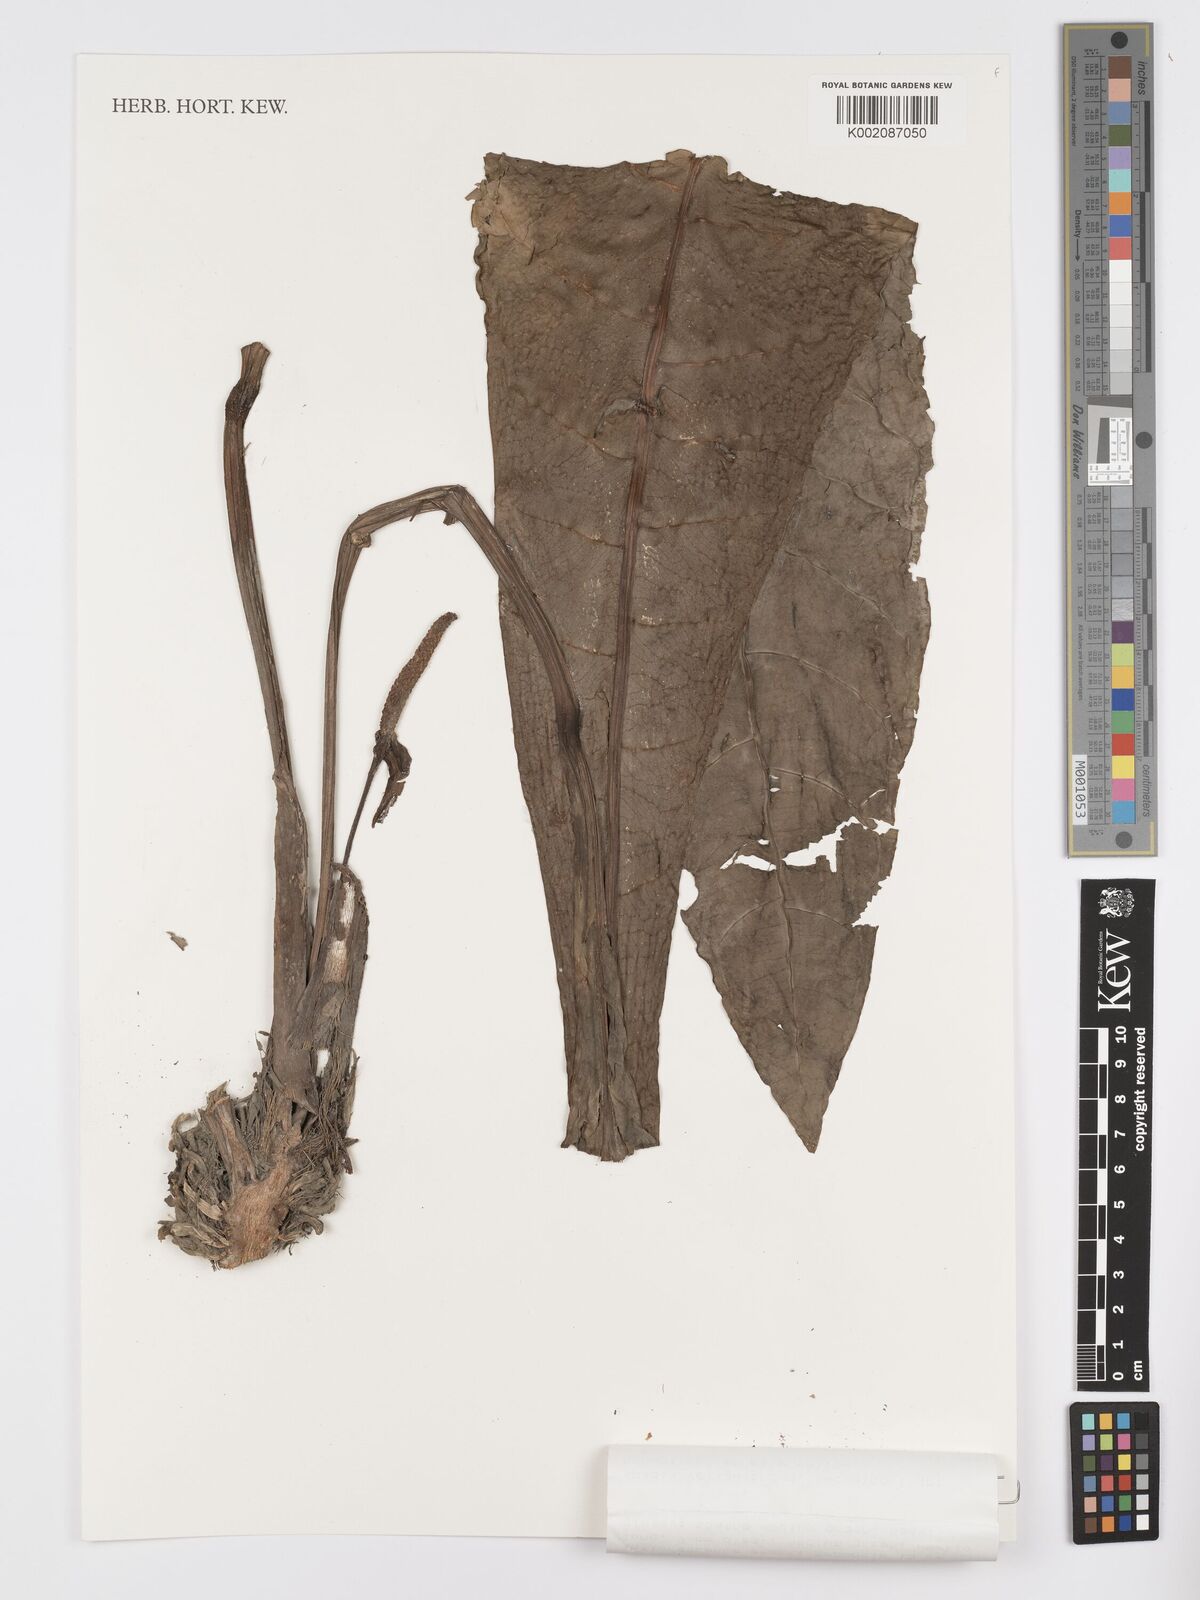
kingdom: Plantae
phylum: Tracheophyta
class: Liliopsida
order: Alismatales
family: Araceae
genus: Anthurium
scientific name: Anthurium solomonii
